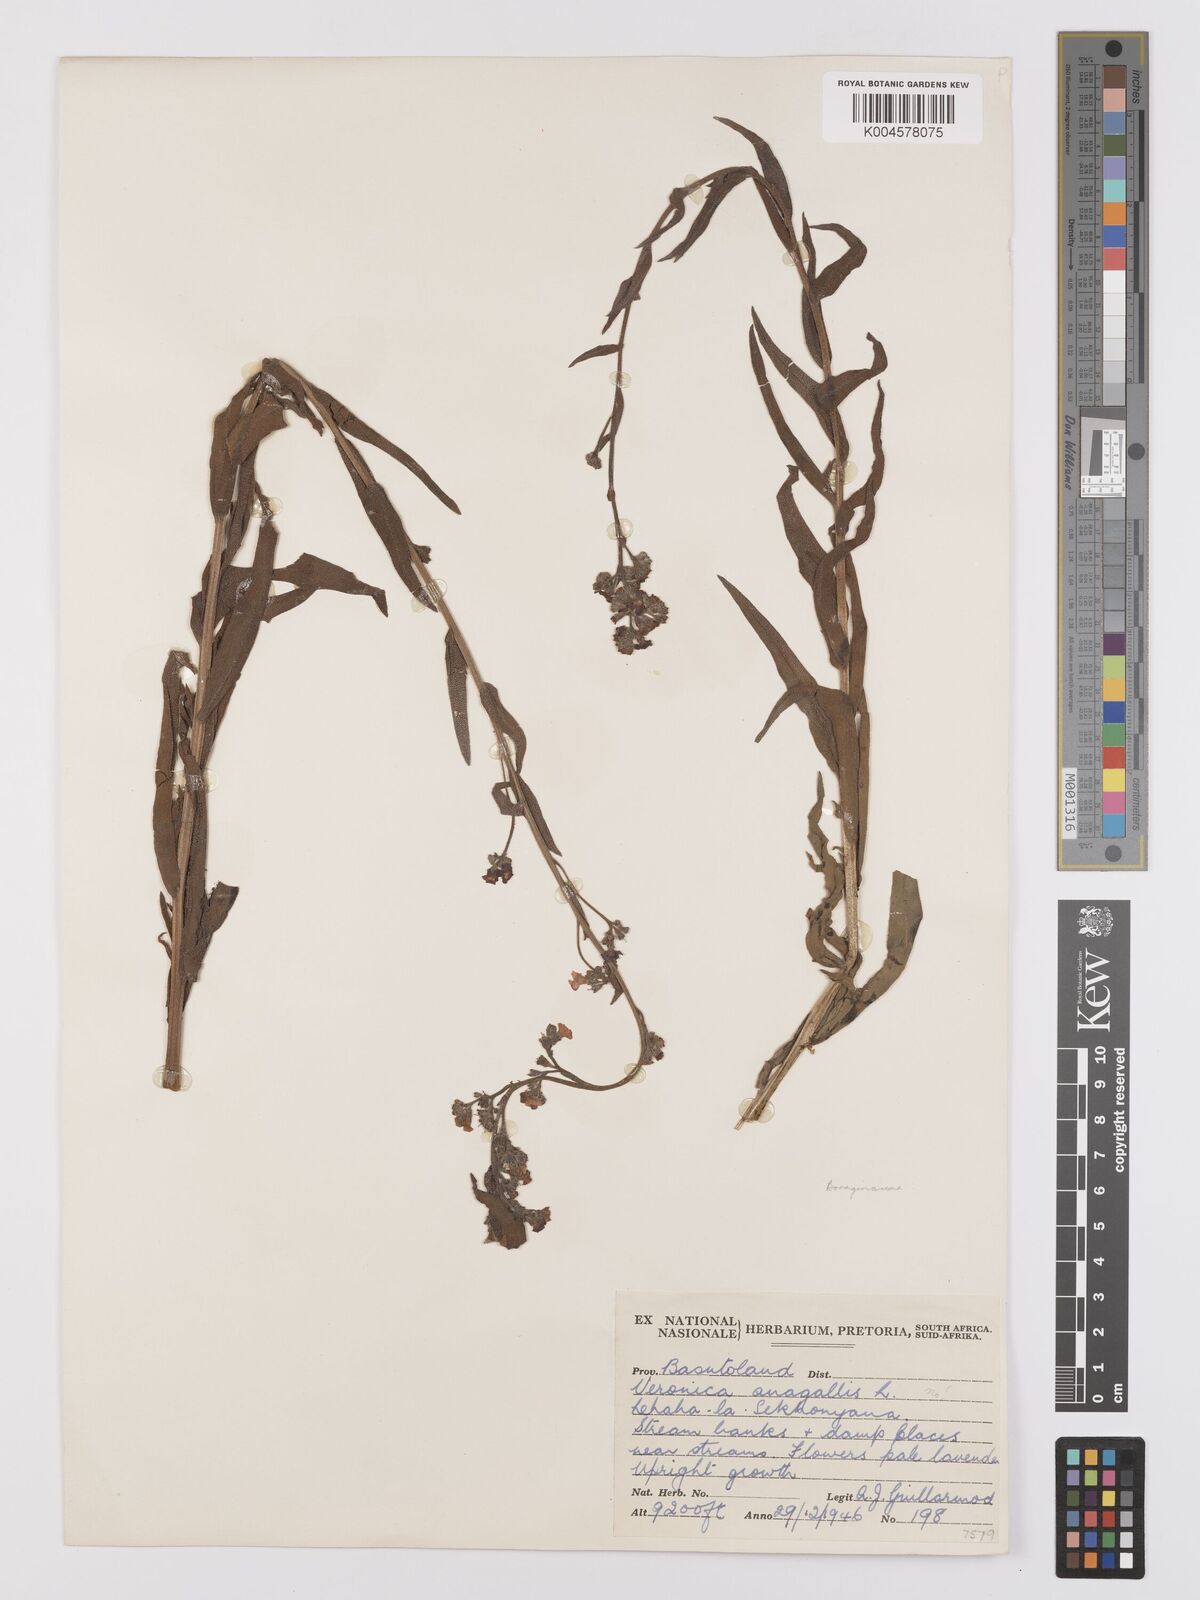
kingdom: Plantae
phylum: Tracheophyta
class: Magnoliopsida
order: Boraginales
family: Boraginaceae
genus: Anchusa
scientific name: Anchusa capensis
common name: Cape bugloss
